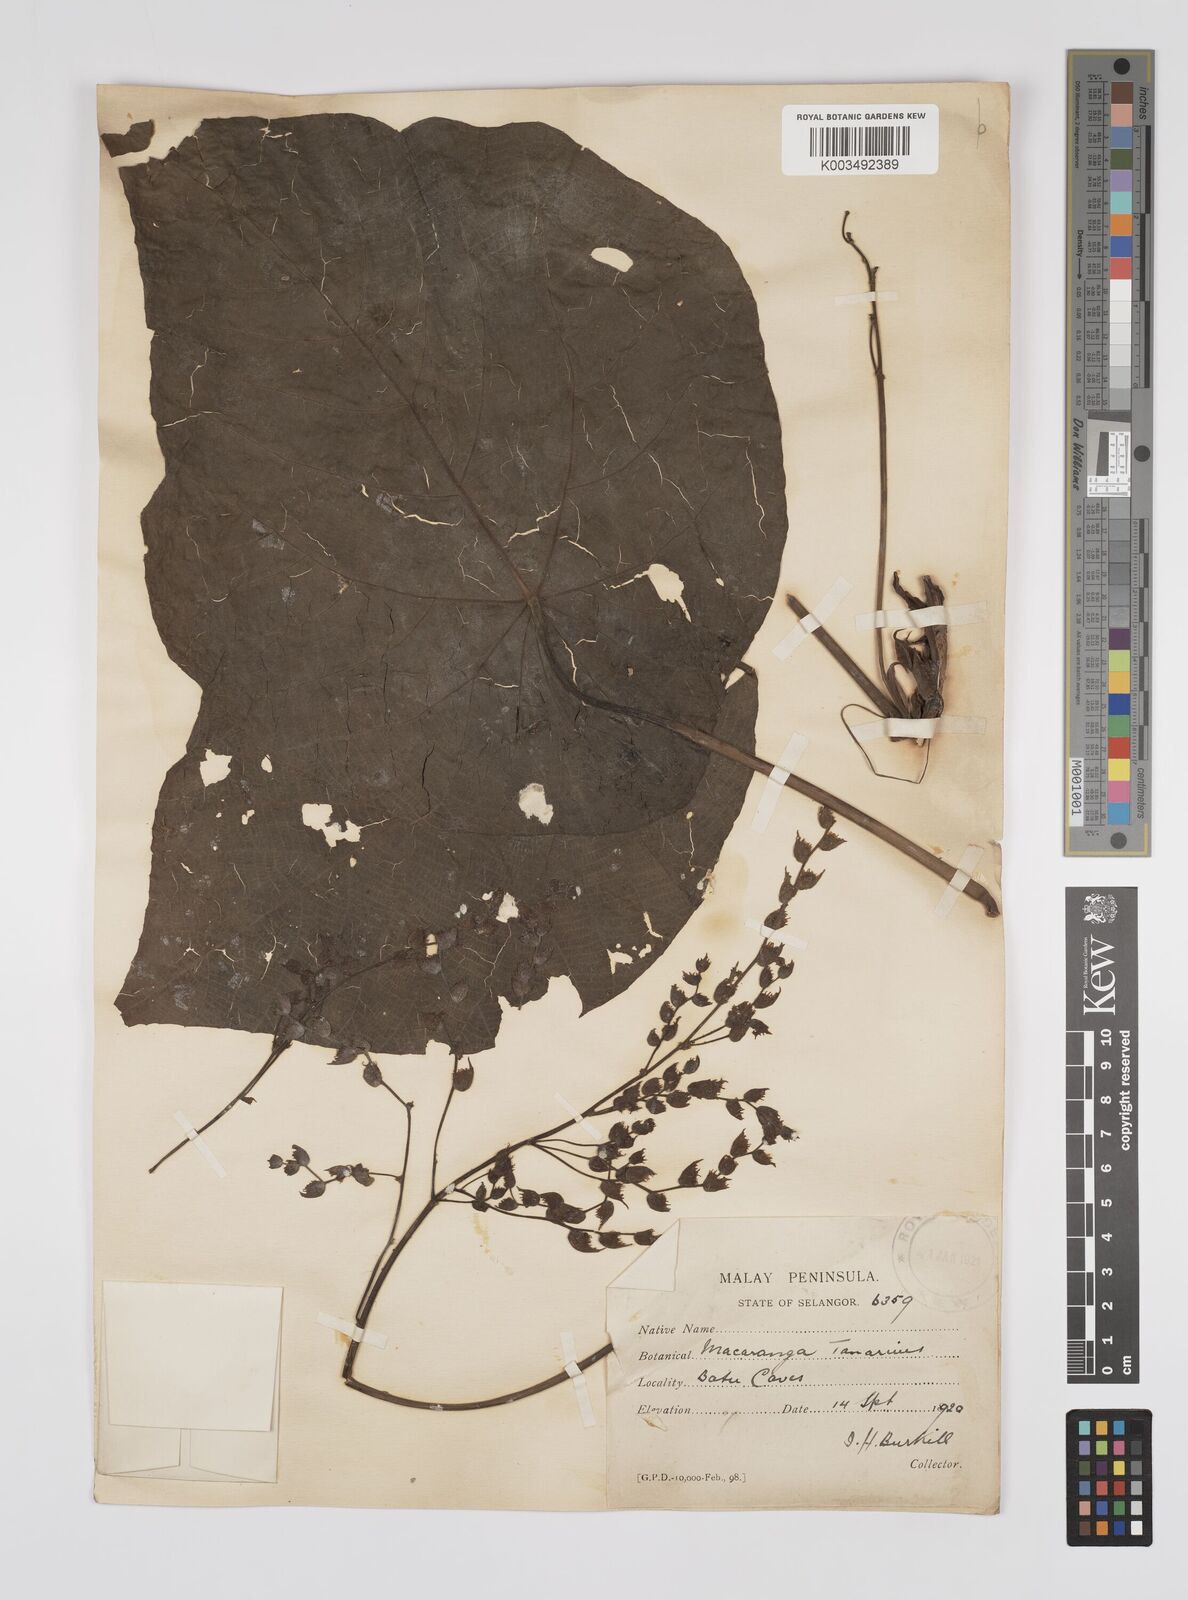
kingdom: Plantae
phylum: Tracheophyta
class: Magnoliopsida
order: Malpighiales
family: Euphorbiaceae
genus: Macaranga
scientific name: Macaranga tanarius
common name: Parasol leaf tree
